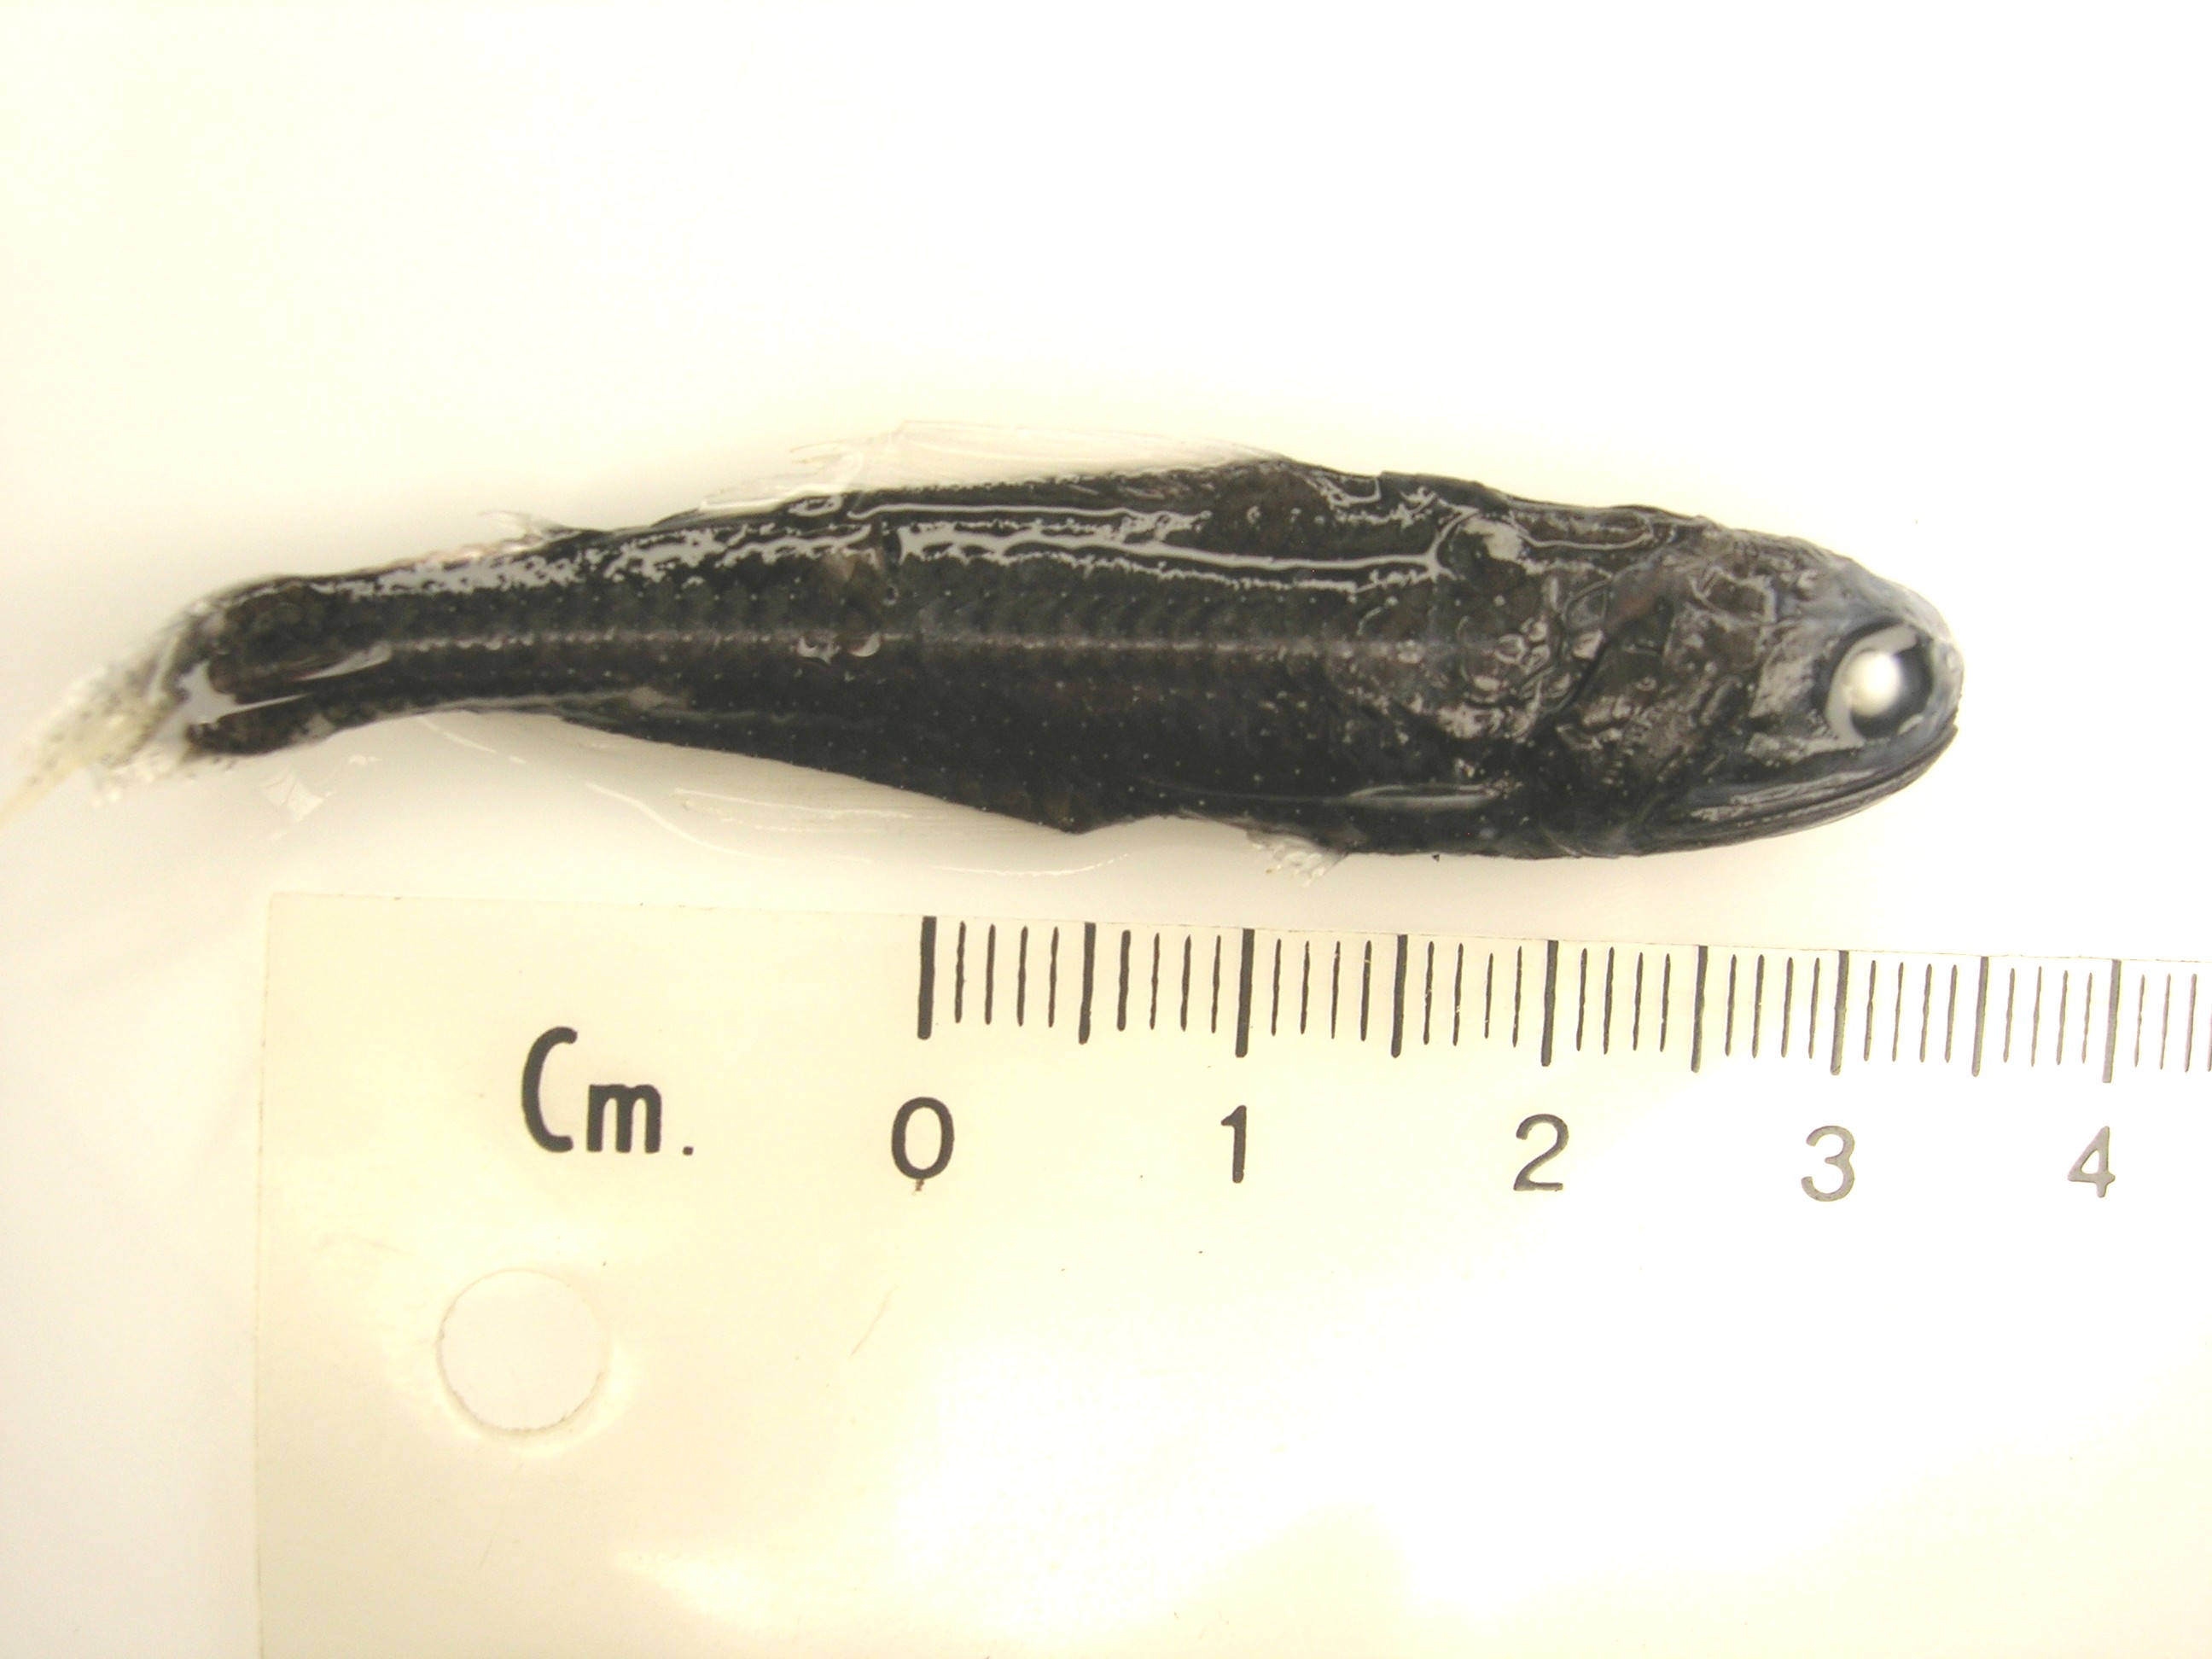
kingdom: Animalia
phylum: Chordata
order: Myctophiformes
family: Myctophidae
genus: Scopelopsis
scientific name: Scopelopsis multipunctatus
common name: Lanternfish
